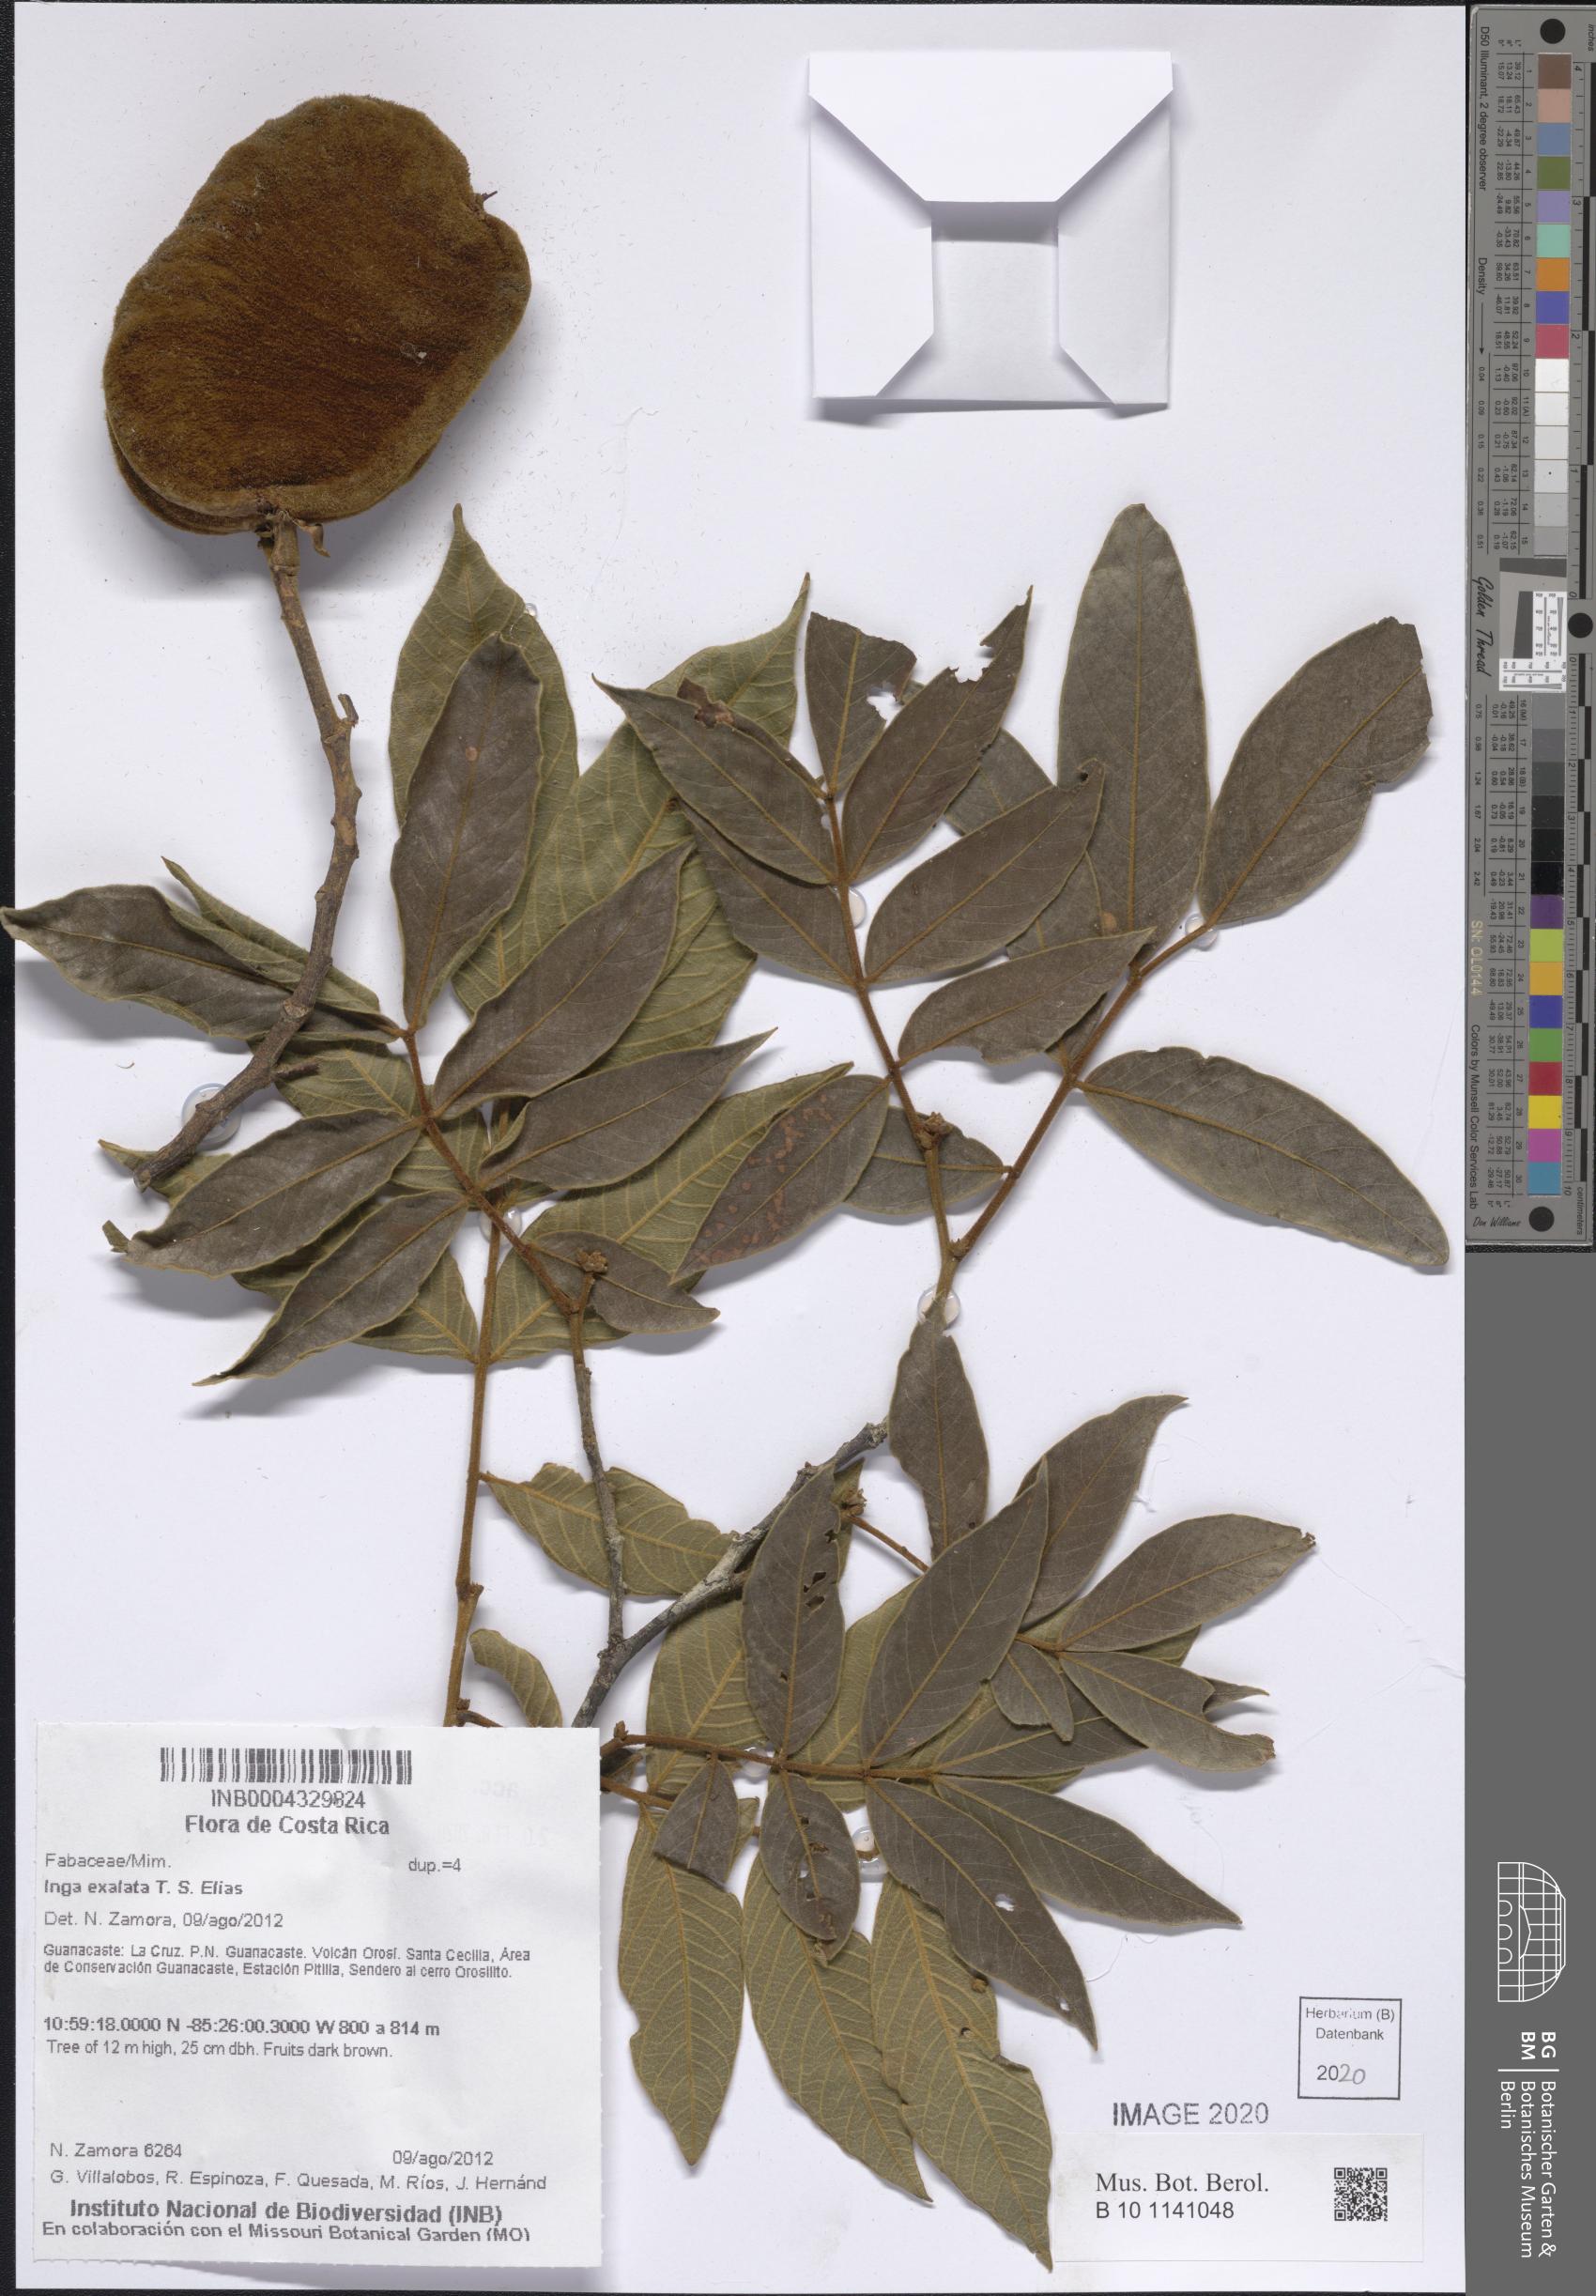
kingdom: Plantae
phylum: Tracheophyta
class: Magnoliopsida
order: Fabales
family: Fabaceae
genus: Inga
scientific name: Inga exalata
